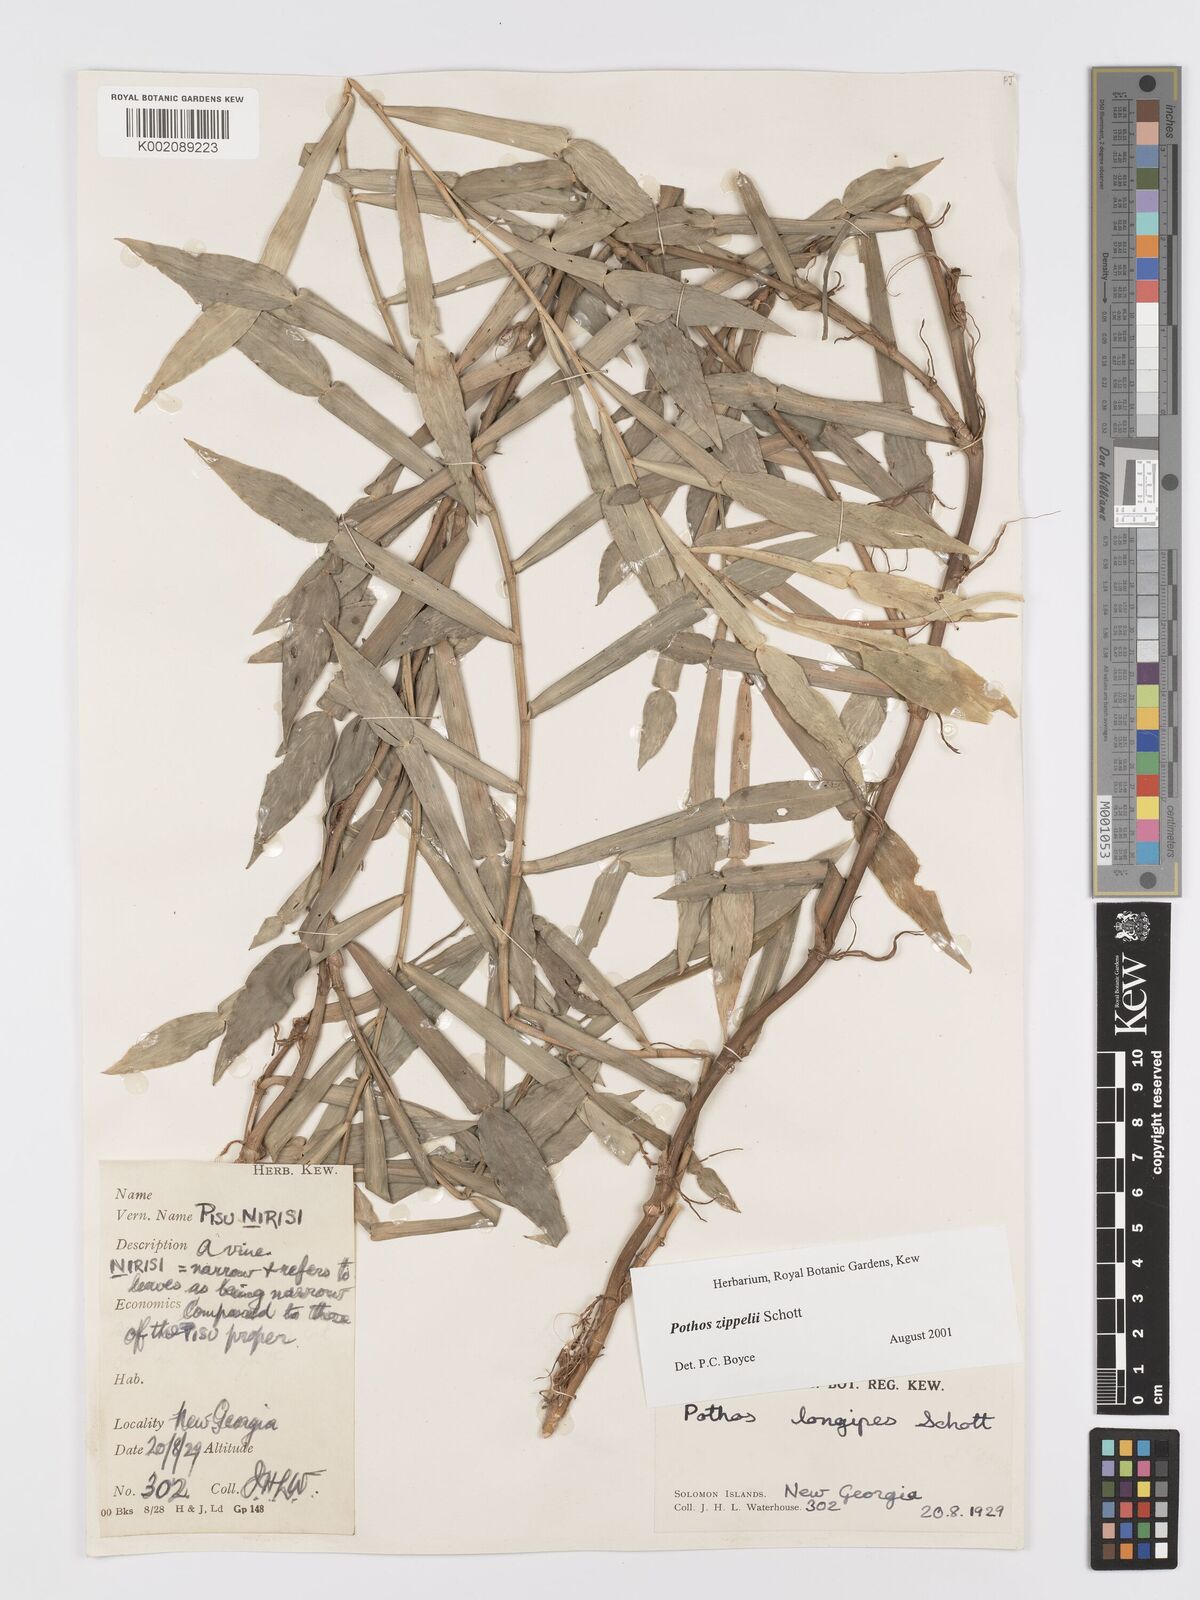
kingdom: Plantae
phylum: Tracheophyta
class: Liliopsida
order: Alismatales
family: Araceae
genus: Pothos
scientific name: Pothos zippelii
